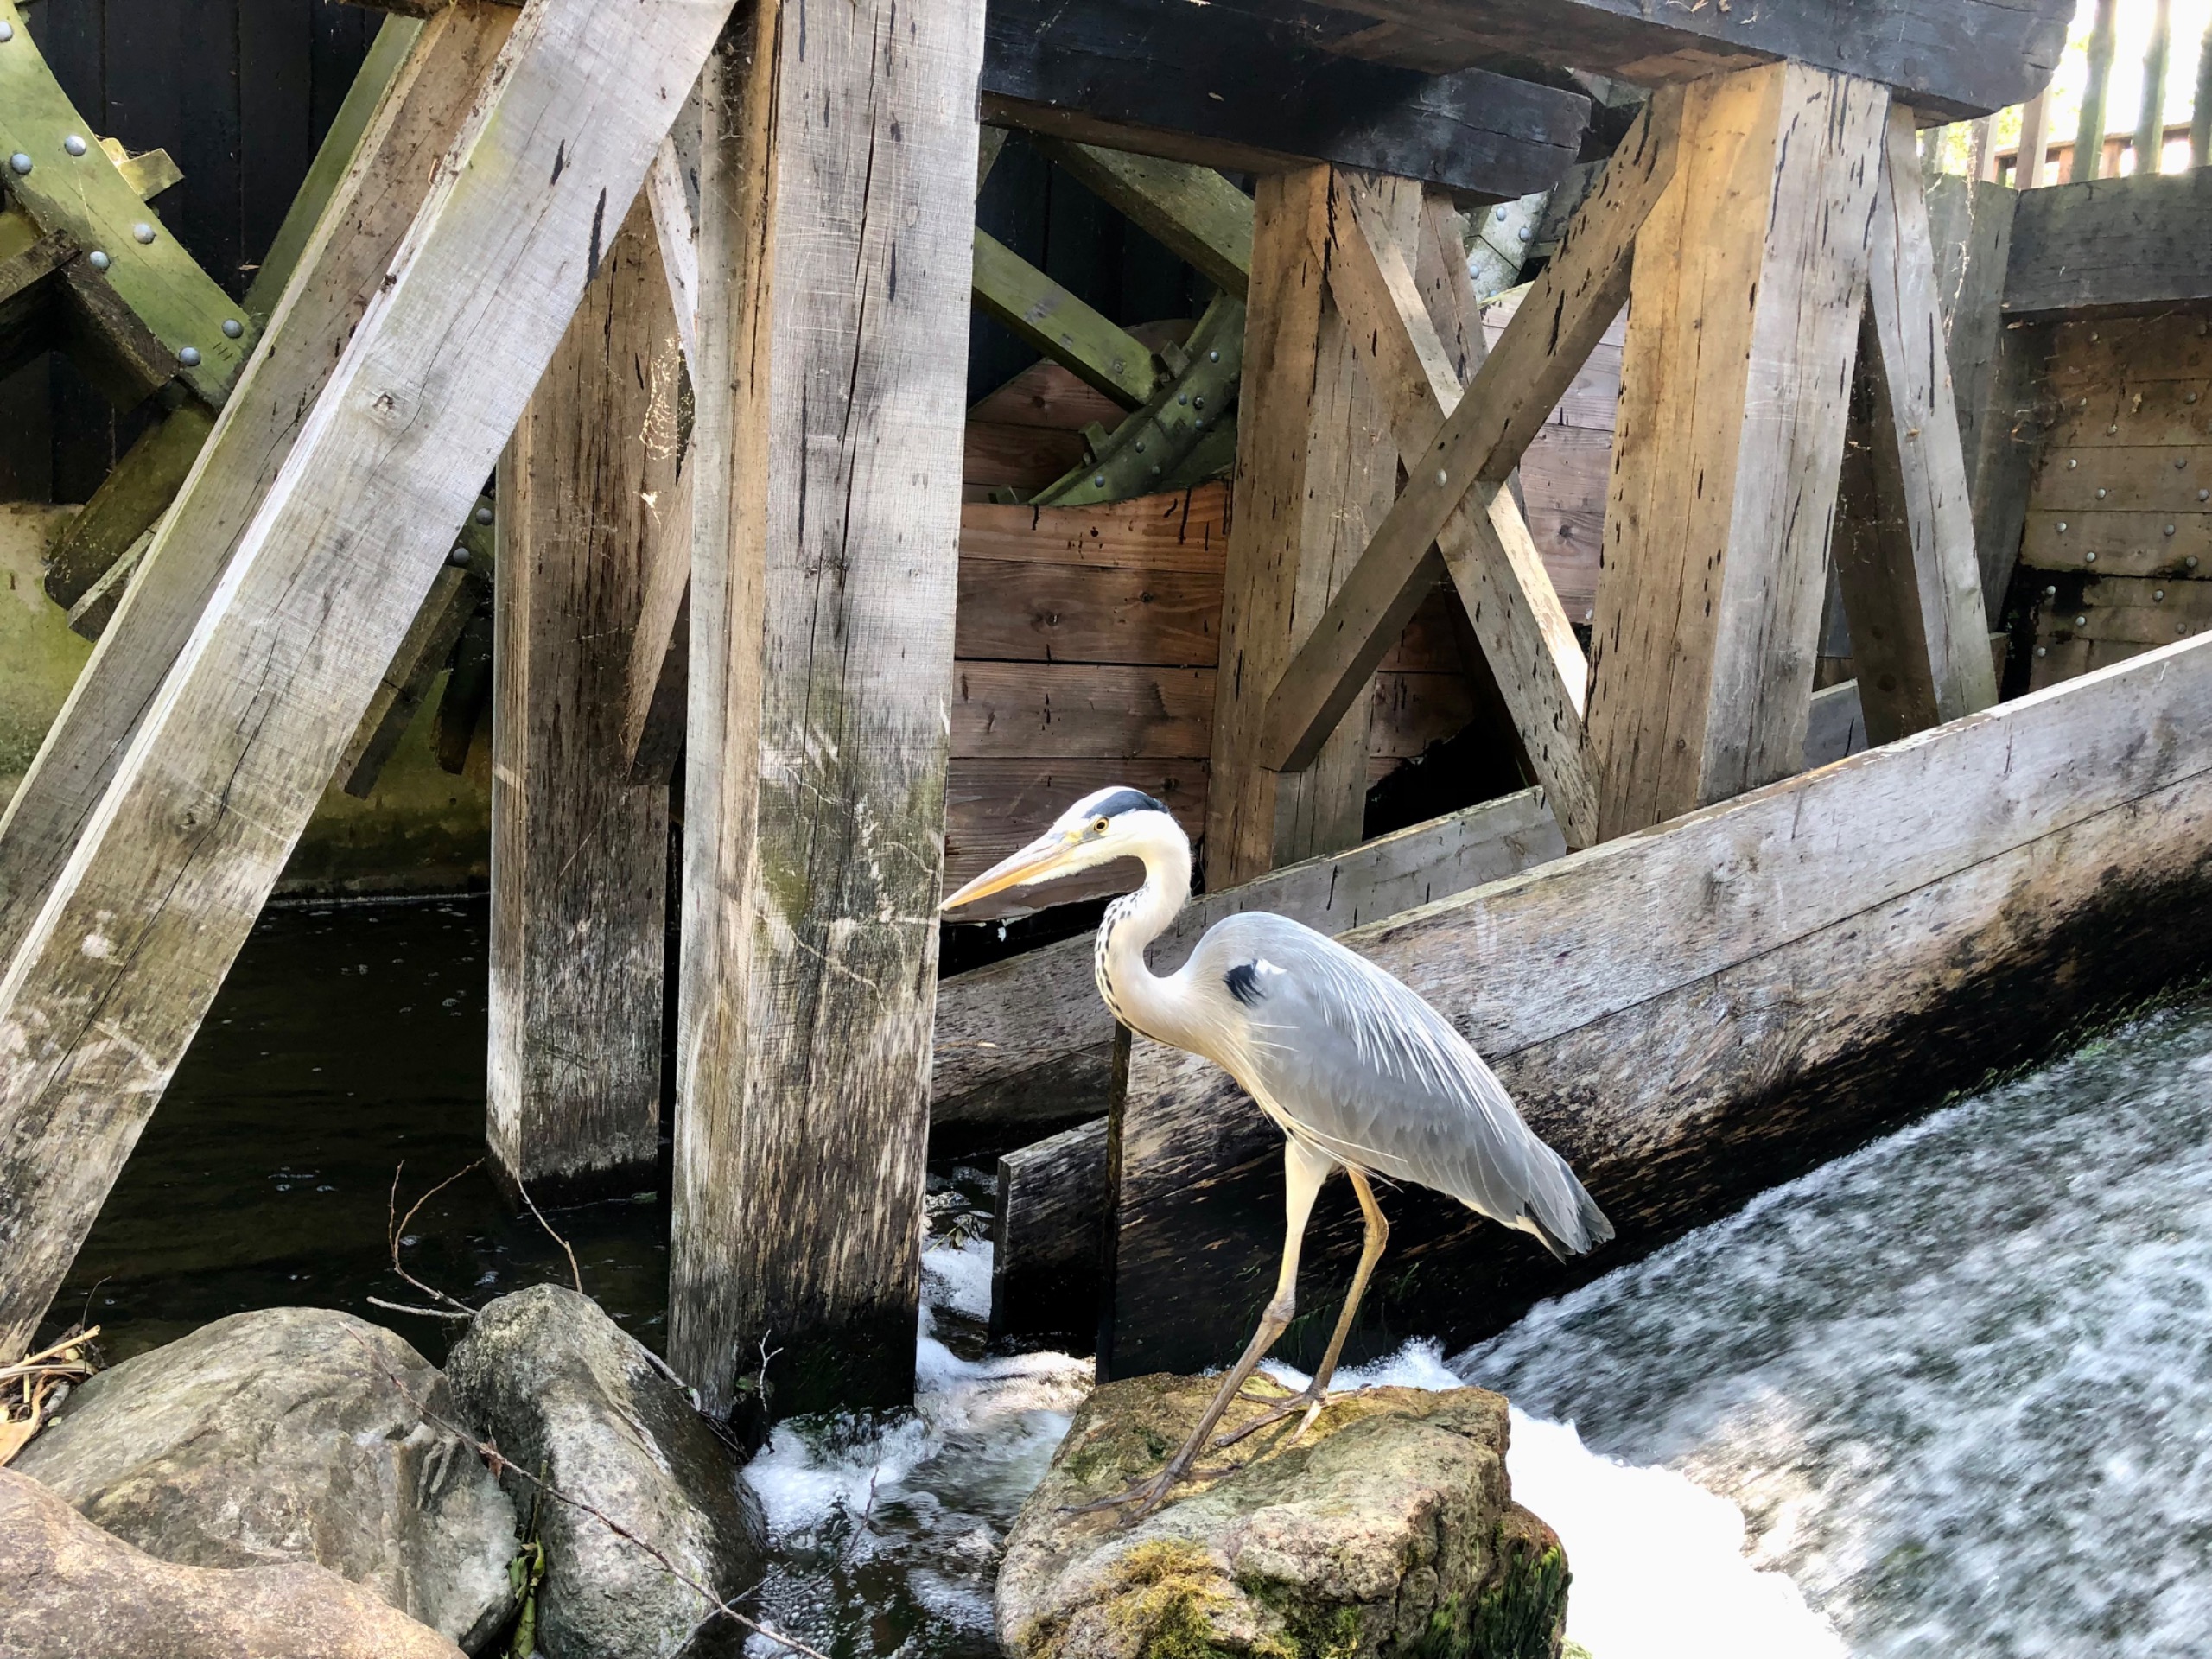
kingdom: Animalia
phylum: Chordata
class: Aves
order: Pelecaniformes
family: Ardeidae
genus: Ardea
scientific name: Ardea cinerea
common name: Fiskehejre
